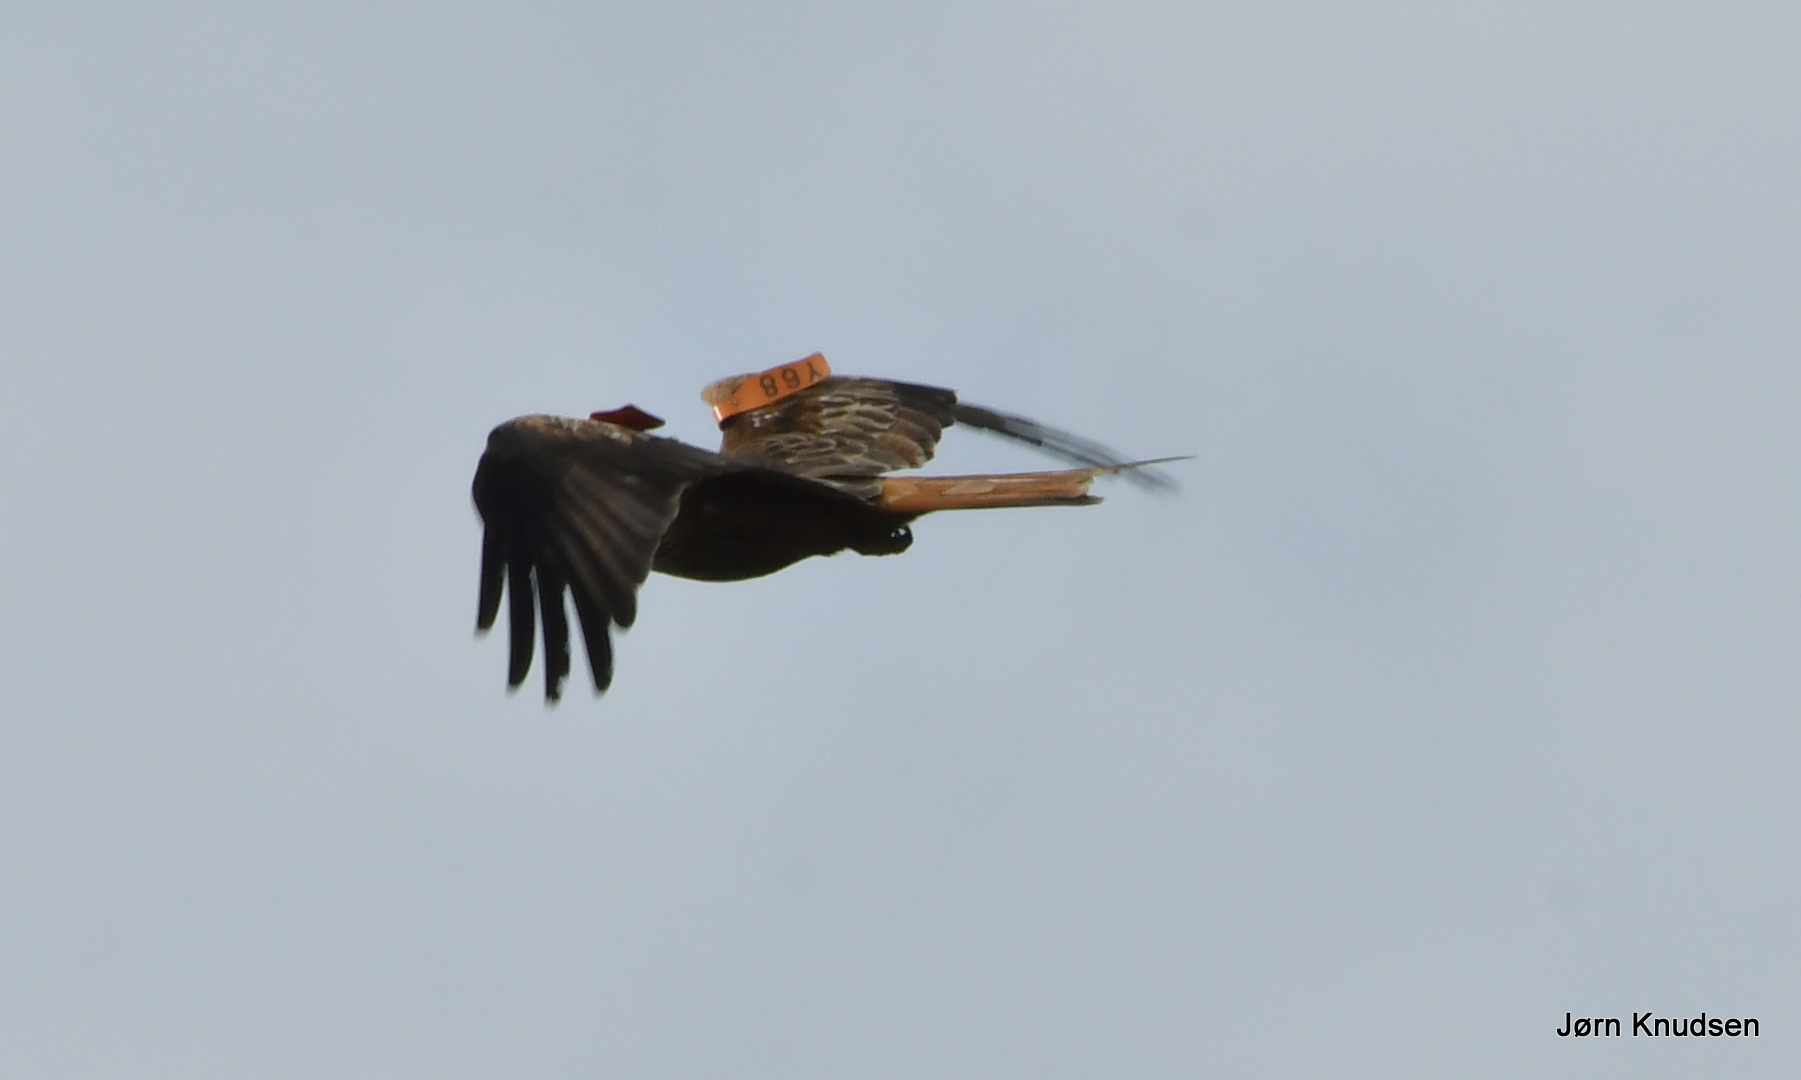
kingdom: Animalia
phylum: Chordata
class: Aves
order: Accipitriformes
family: Accipitridae
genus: Milvus
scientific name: Milvus milvus
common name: Rød glente
